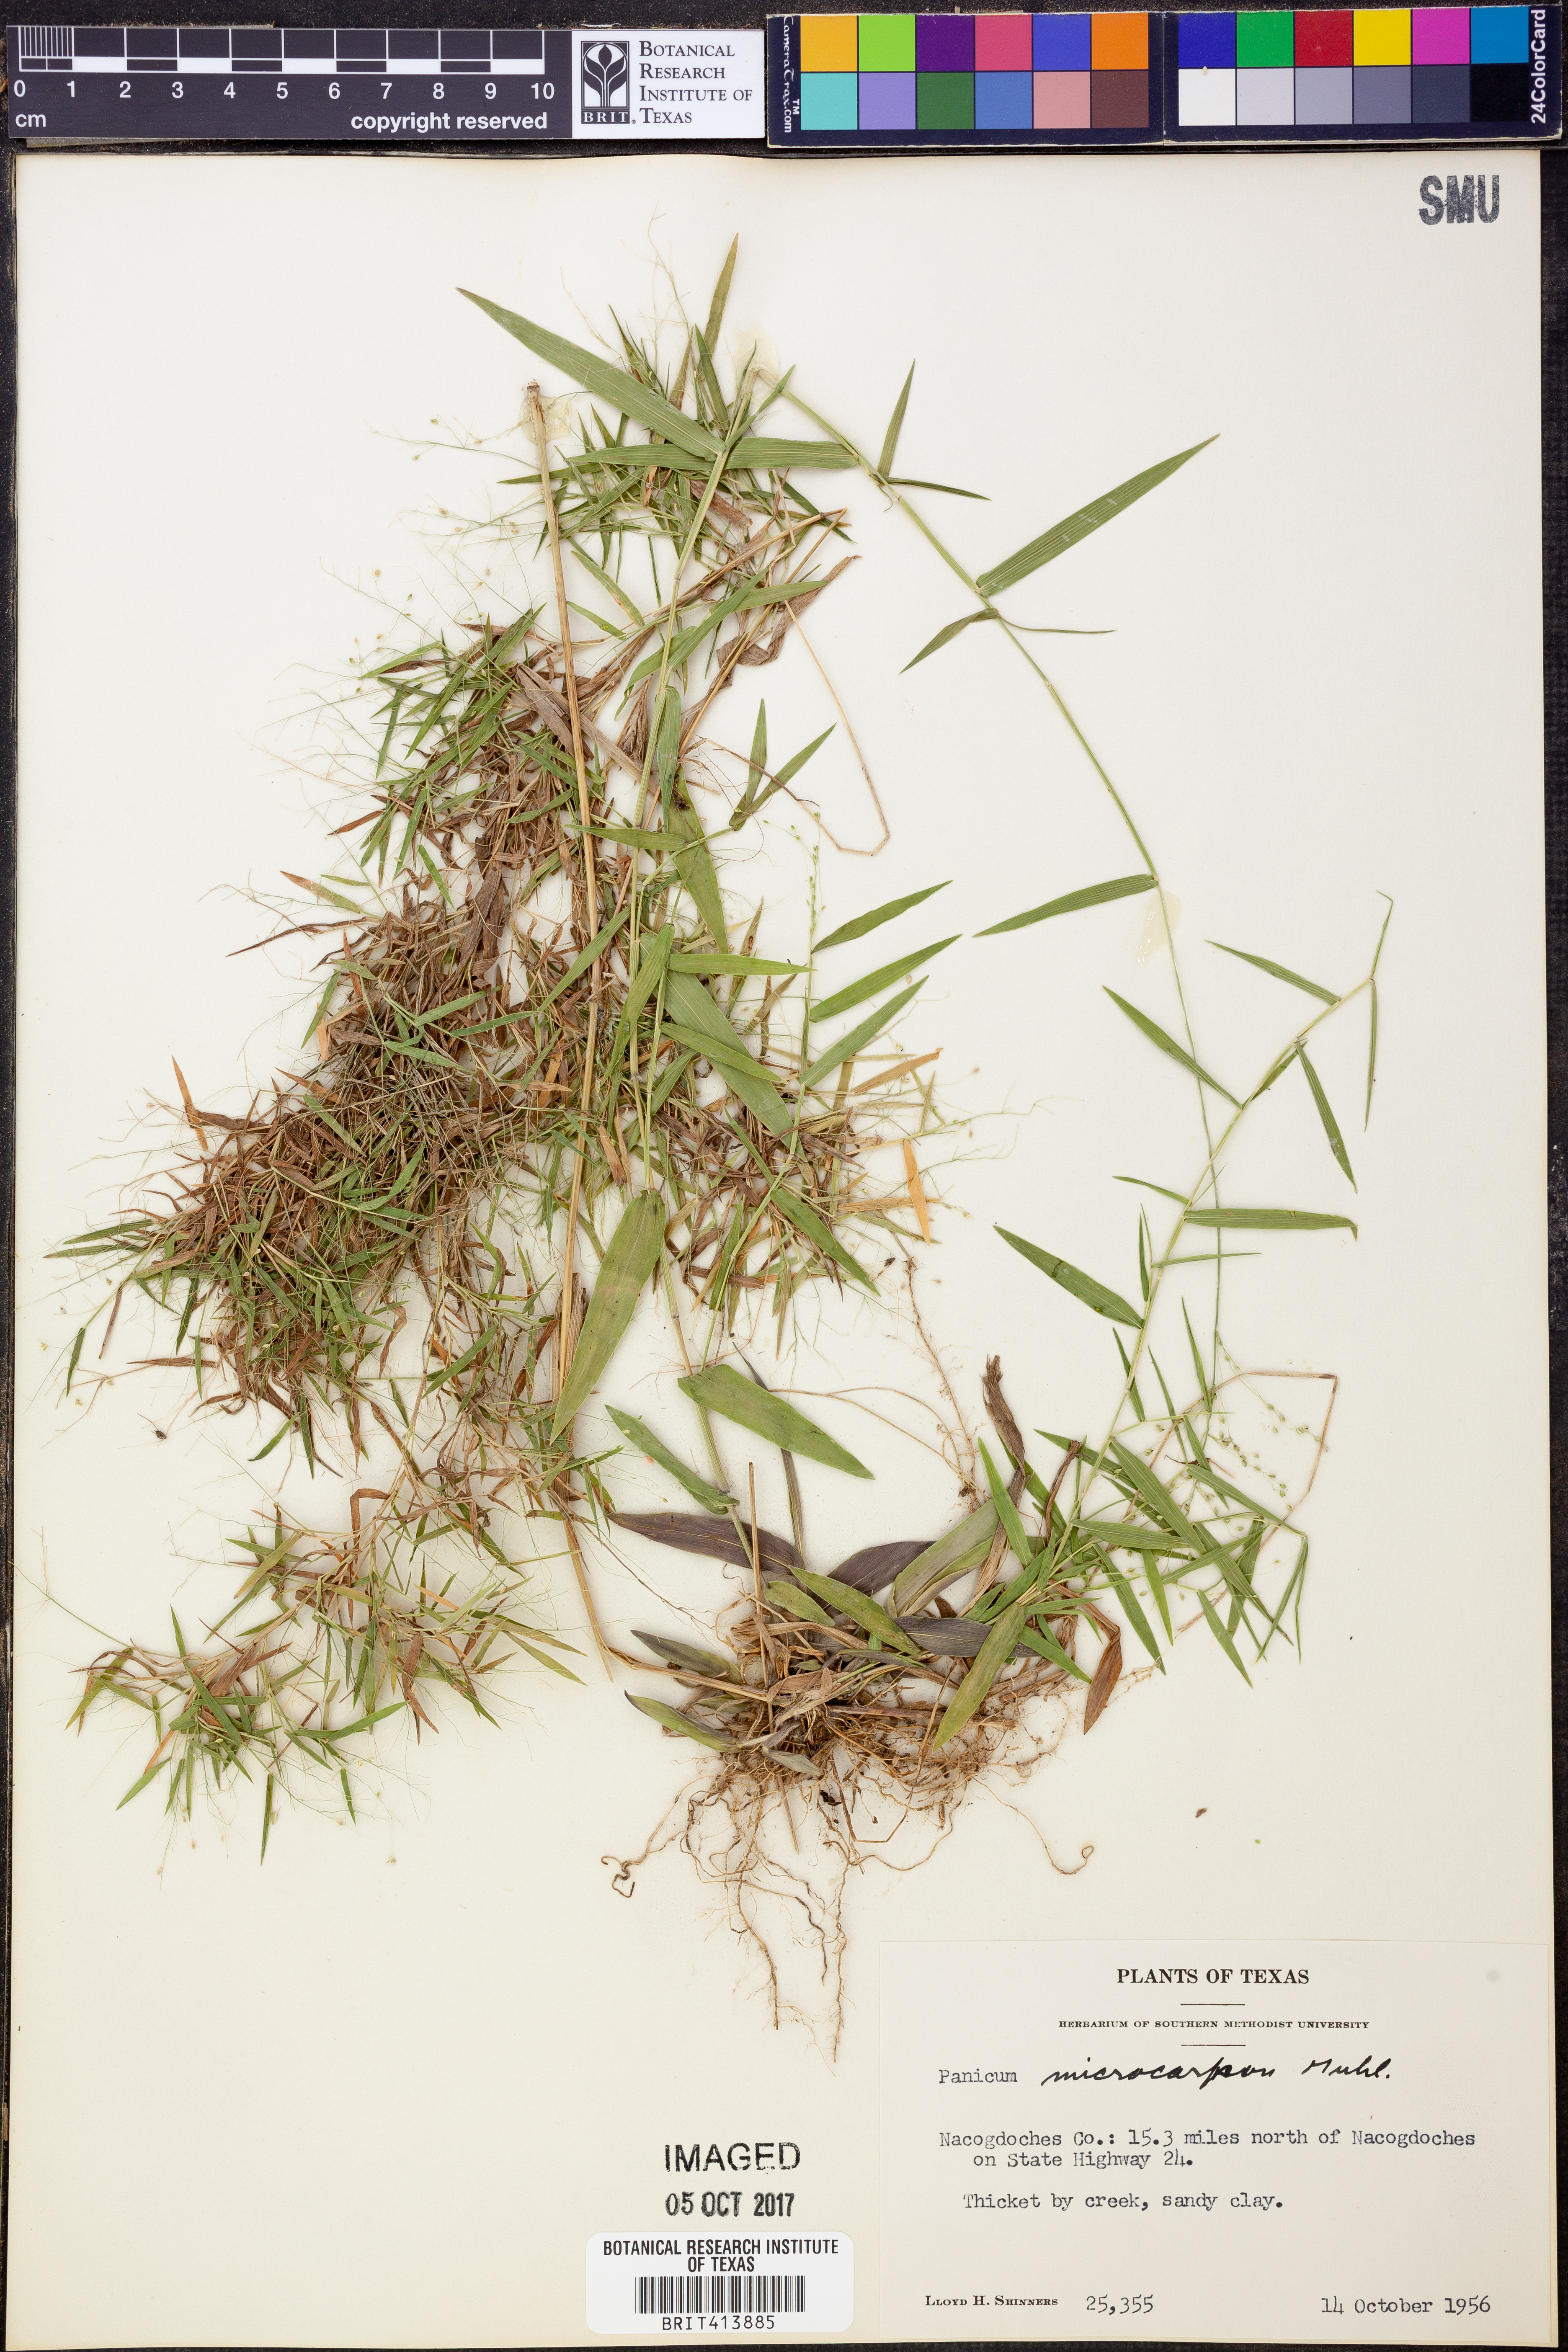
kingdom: Plantae
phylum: Tracheophyta
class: Liliopsida
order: Poales
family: Poaceae
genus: Dichanthelium
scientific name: Dichanthelium polyanthes
